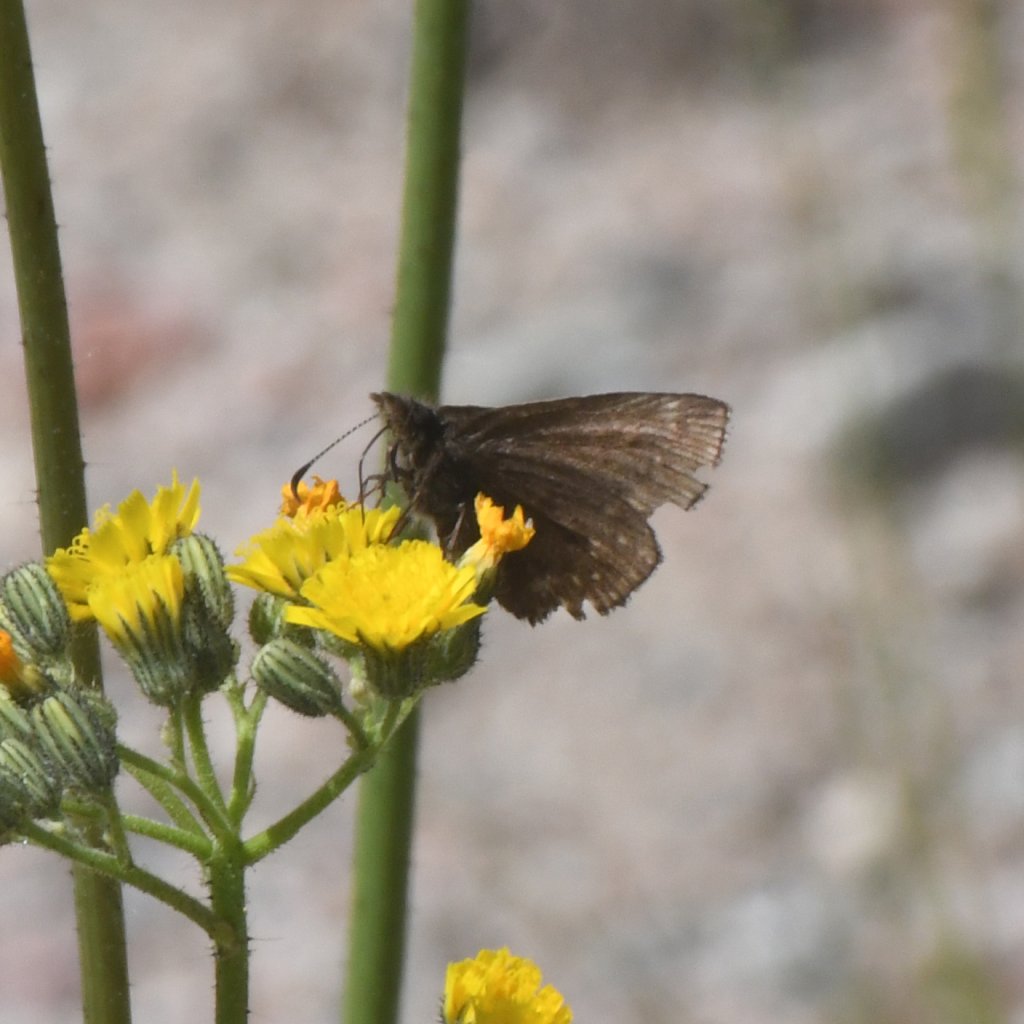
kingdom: Animalia
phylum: Arthropoda
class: Insecta
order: Lepidoptera
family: Hesperiidae
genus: Erynnis
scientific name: Erynnis icelus
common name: Dreamy Duskywing
